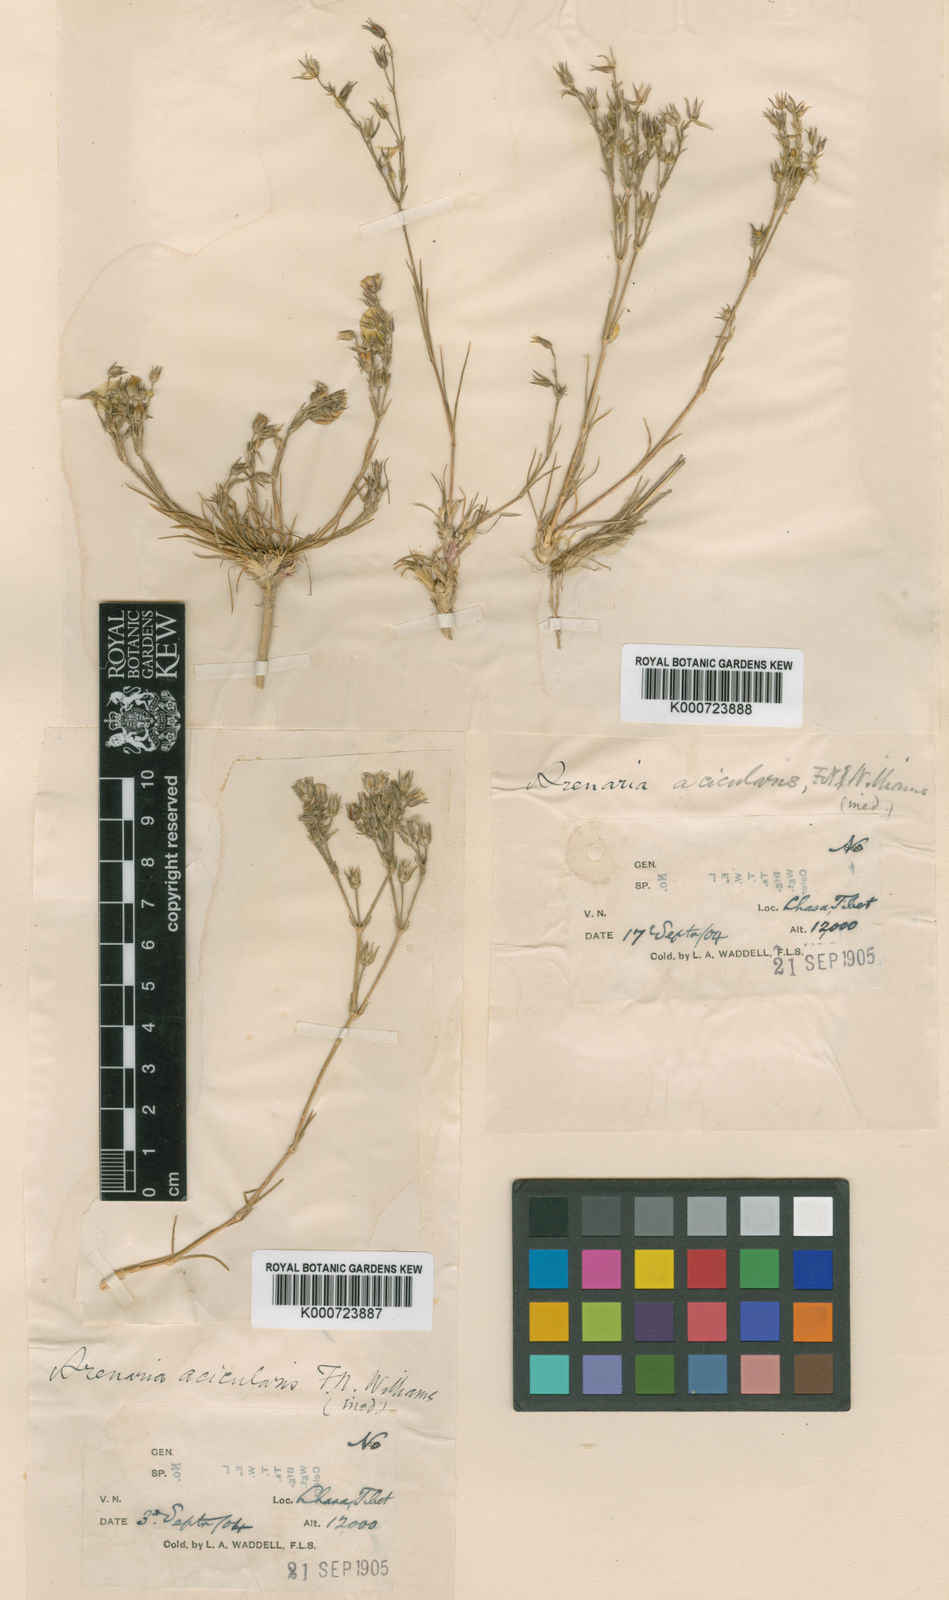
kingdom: Plantae
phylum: Tracheophyta
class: Magnoliopsida
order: Caryophyllales
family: Caryophyllaceae
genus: Eremogone
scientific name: Eremogone acicularis
